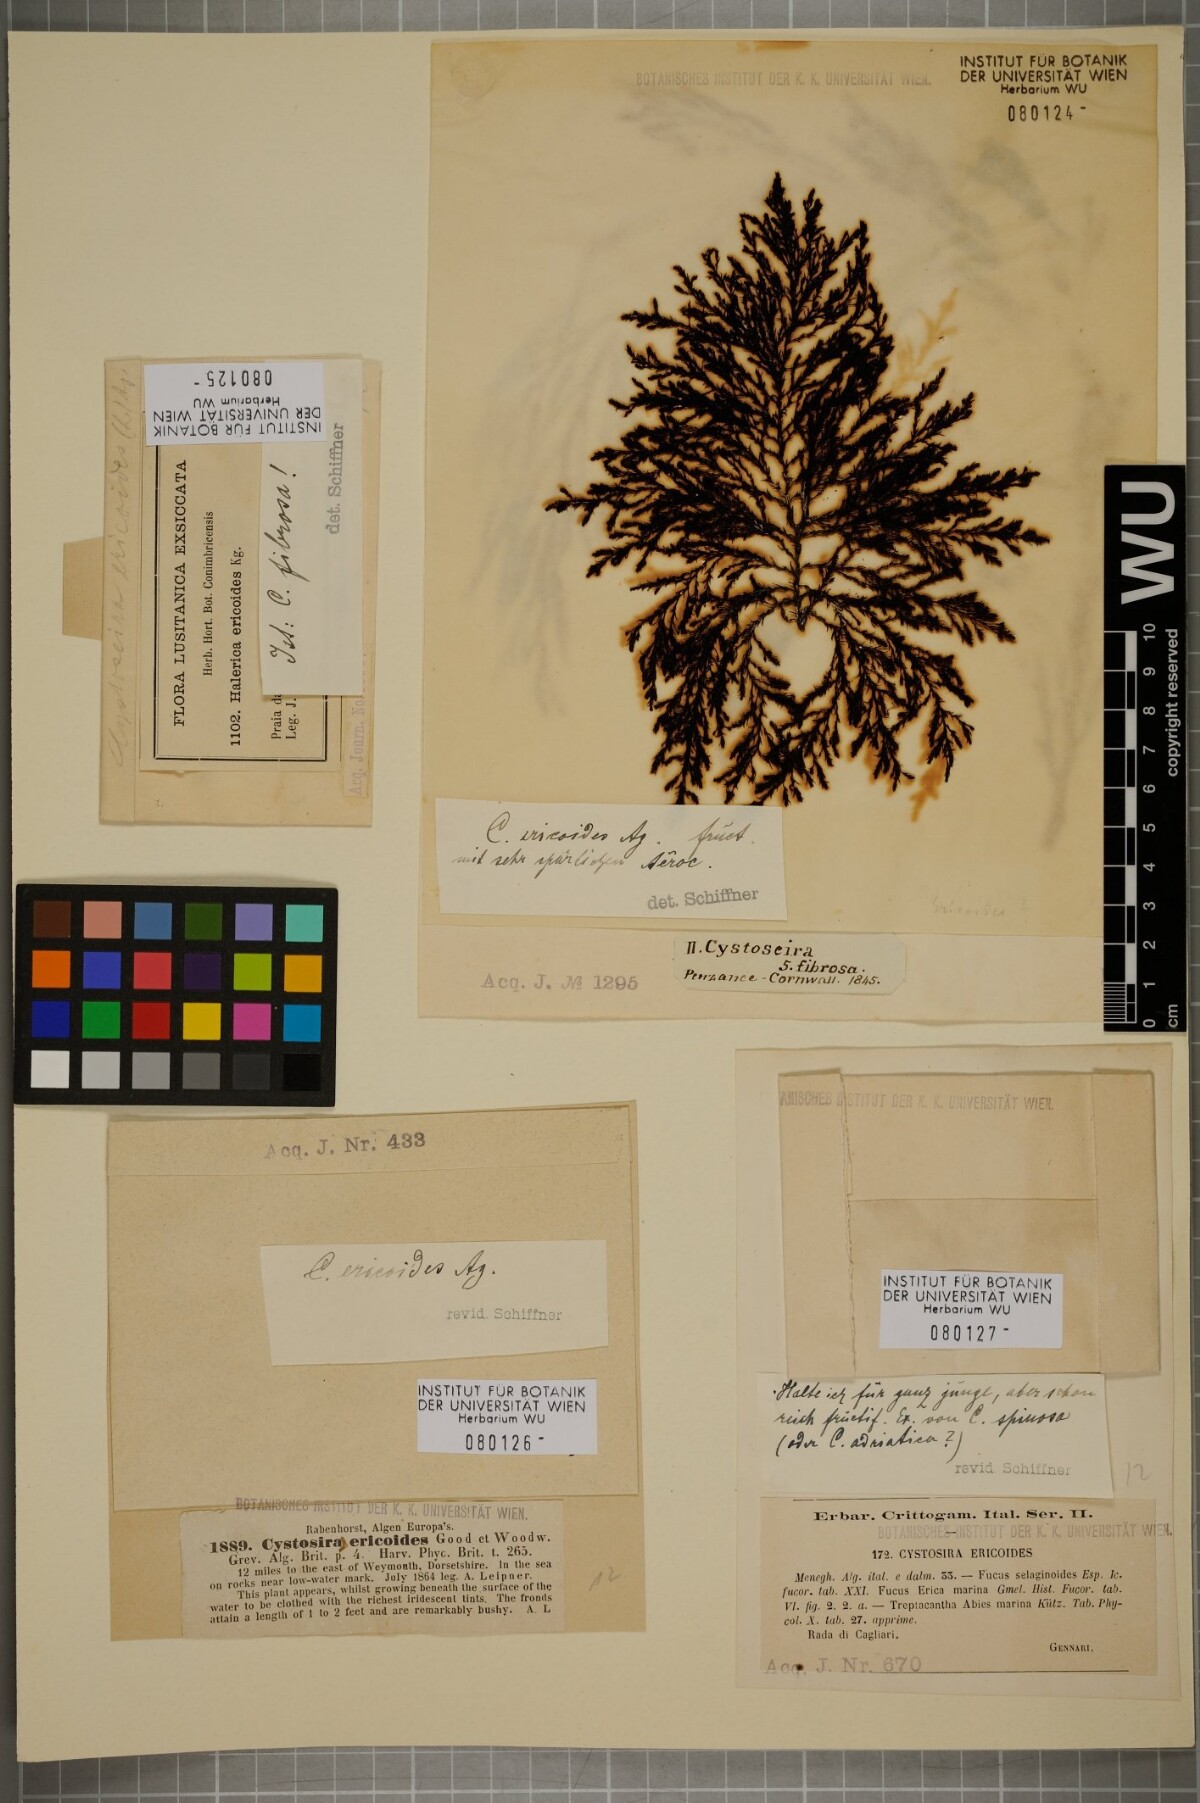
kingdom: Chromista
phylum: Ochrophyta
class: Phaeophyceae
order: Fucales
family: Sargassaceae
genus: Cystoseira
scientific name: Cystoseira Ericaria selaginoides
